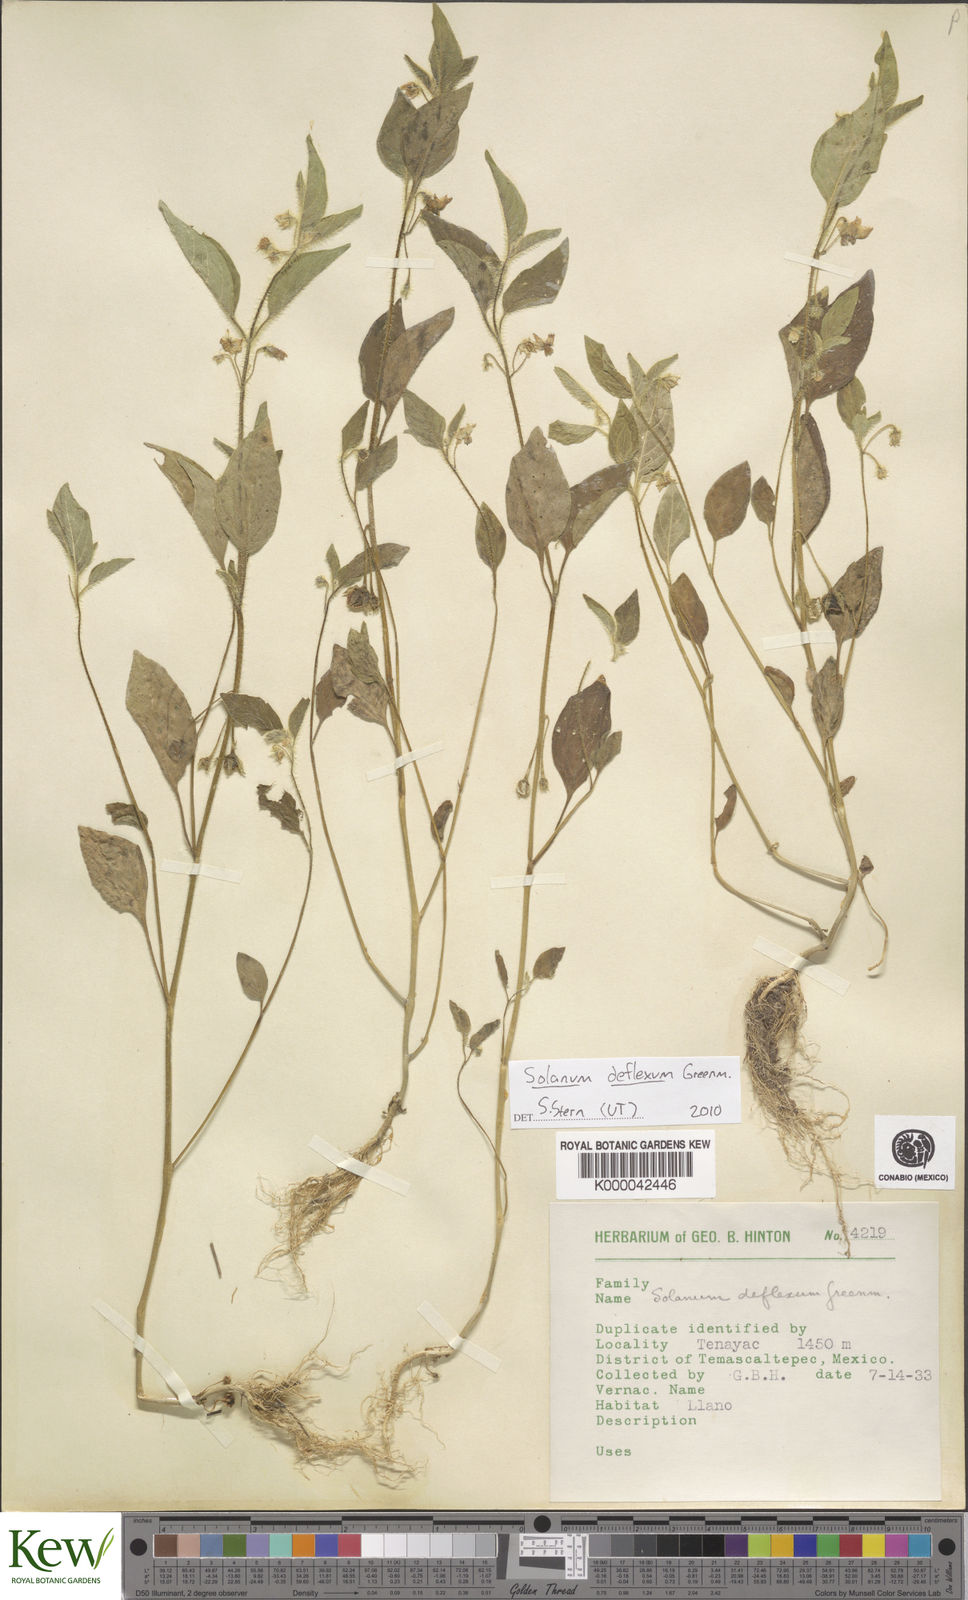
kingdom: Plantae
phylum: Tracheophyta
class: Magnoliopsida
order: Solanales
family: Solanaceae
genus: Solanum
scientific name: Solanum deflexum
